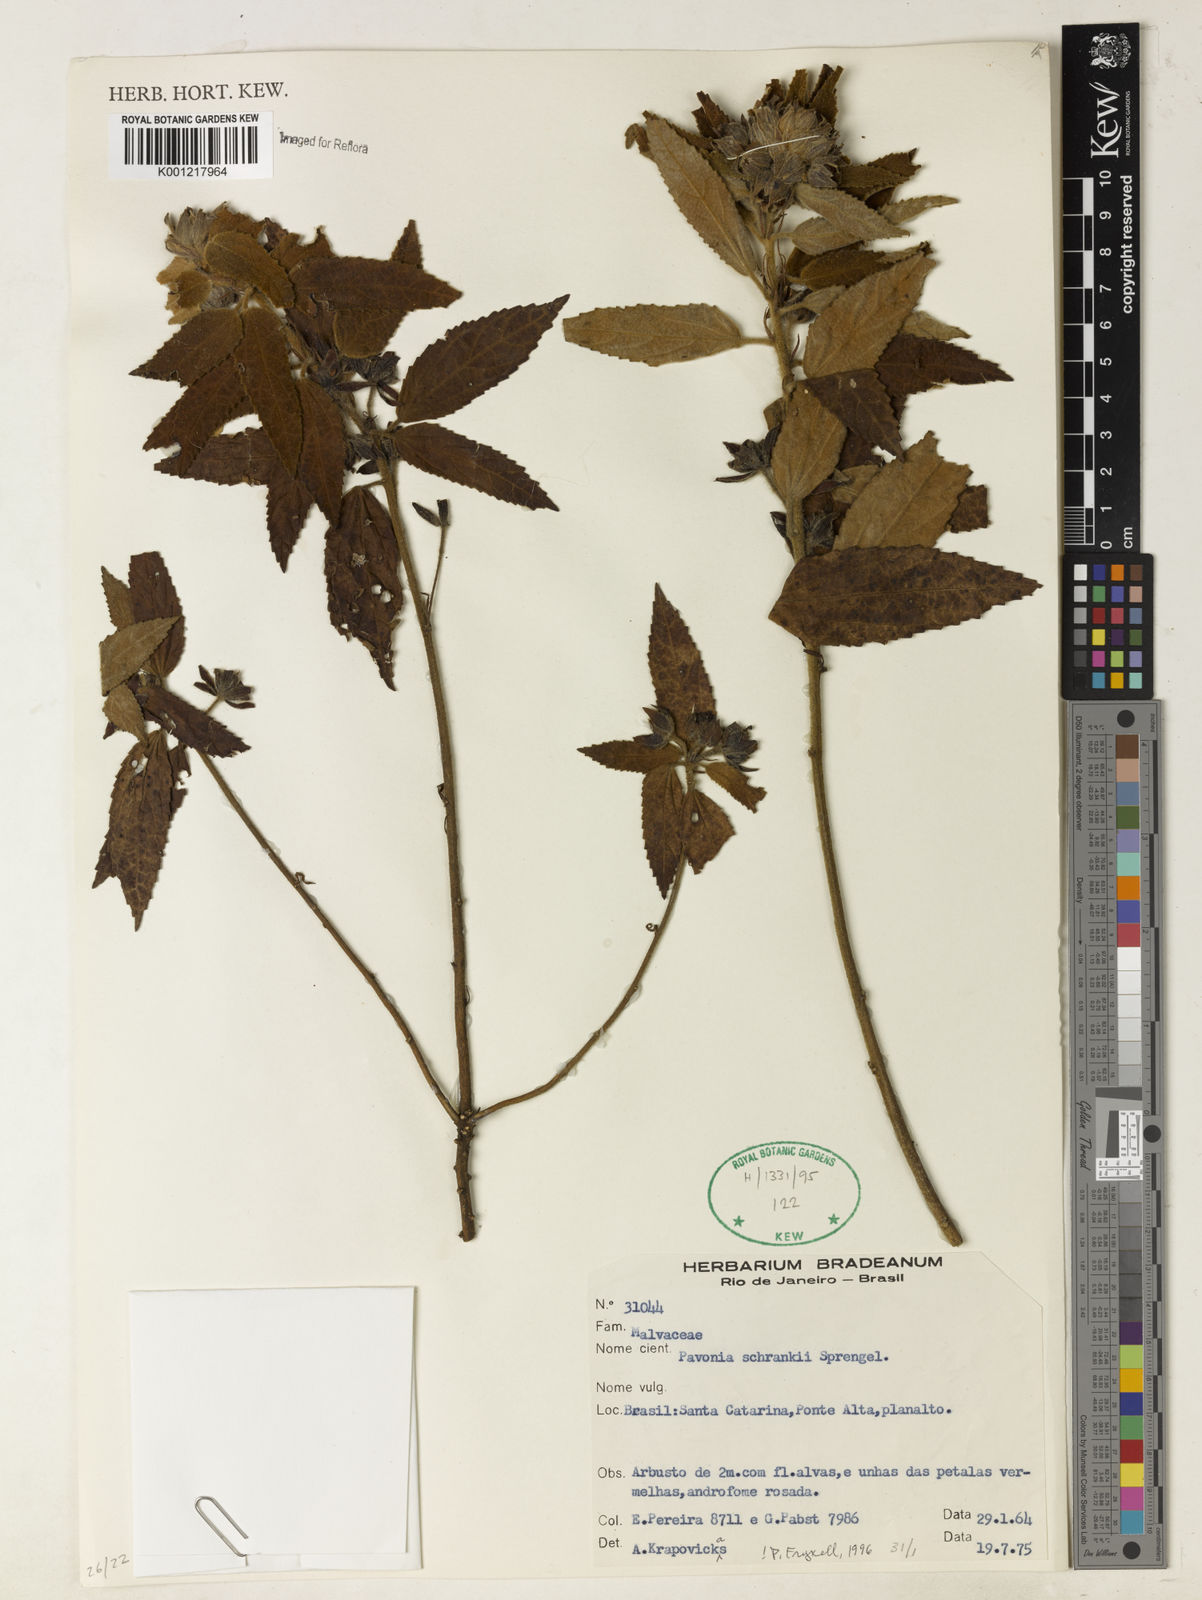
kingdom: Plantae
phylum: Tracheophyta
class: Magnoliopsida
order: Malvales
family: Malvaceae
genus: Pavonia
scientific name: Pavonia schrankii
